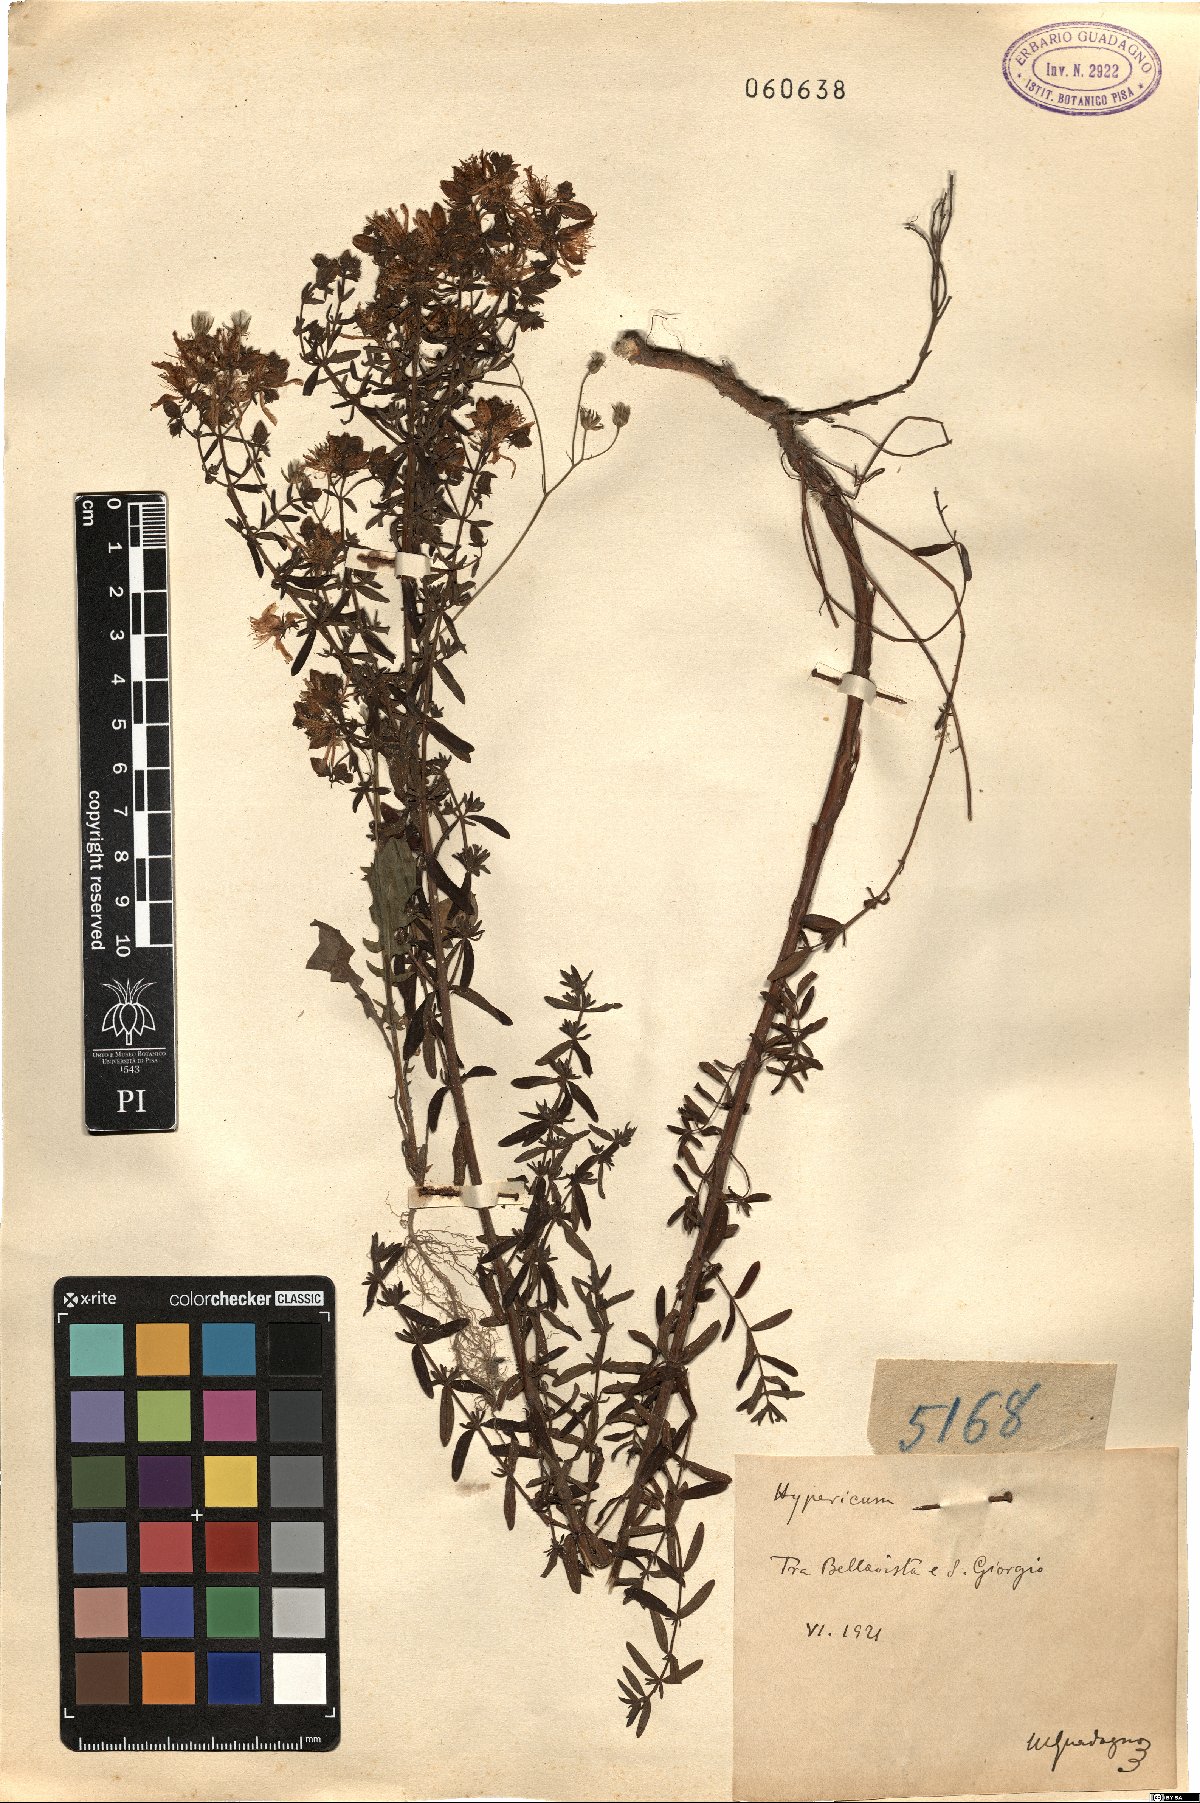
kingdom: Plantae
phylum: Tracheophyta
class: Magnoliopsida
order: Malpighiales
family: Hypericaceae
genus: Hypericum
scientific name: Hypericum
